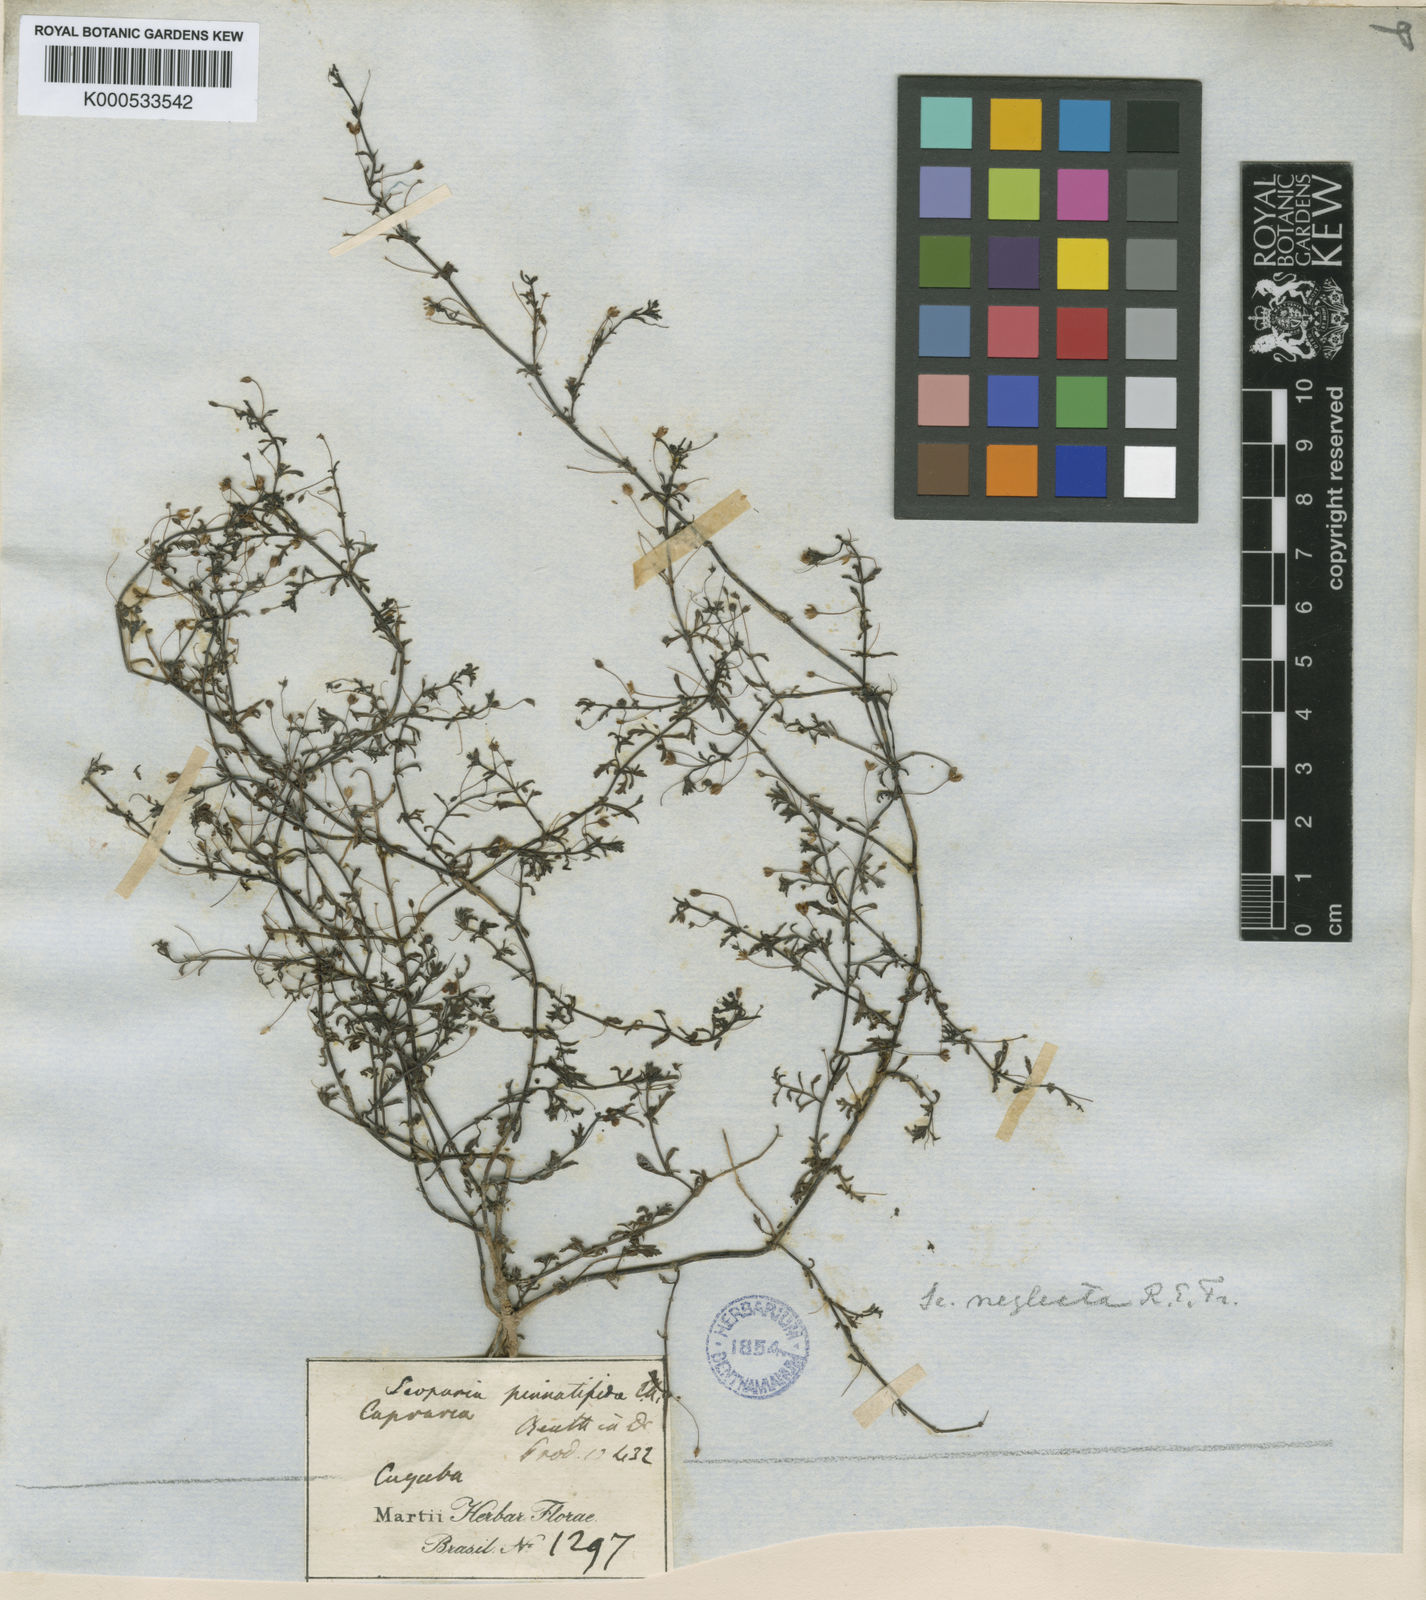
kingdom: Plantae
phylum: Tracheophyta
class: Magnoliopsida
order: Lamiales
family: Plantaginaceae
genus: Scoparia
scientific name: Scoparia montevidensis
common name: Broomwort
